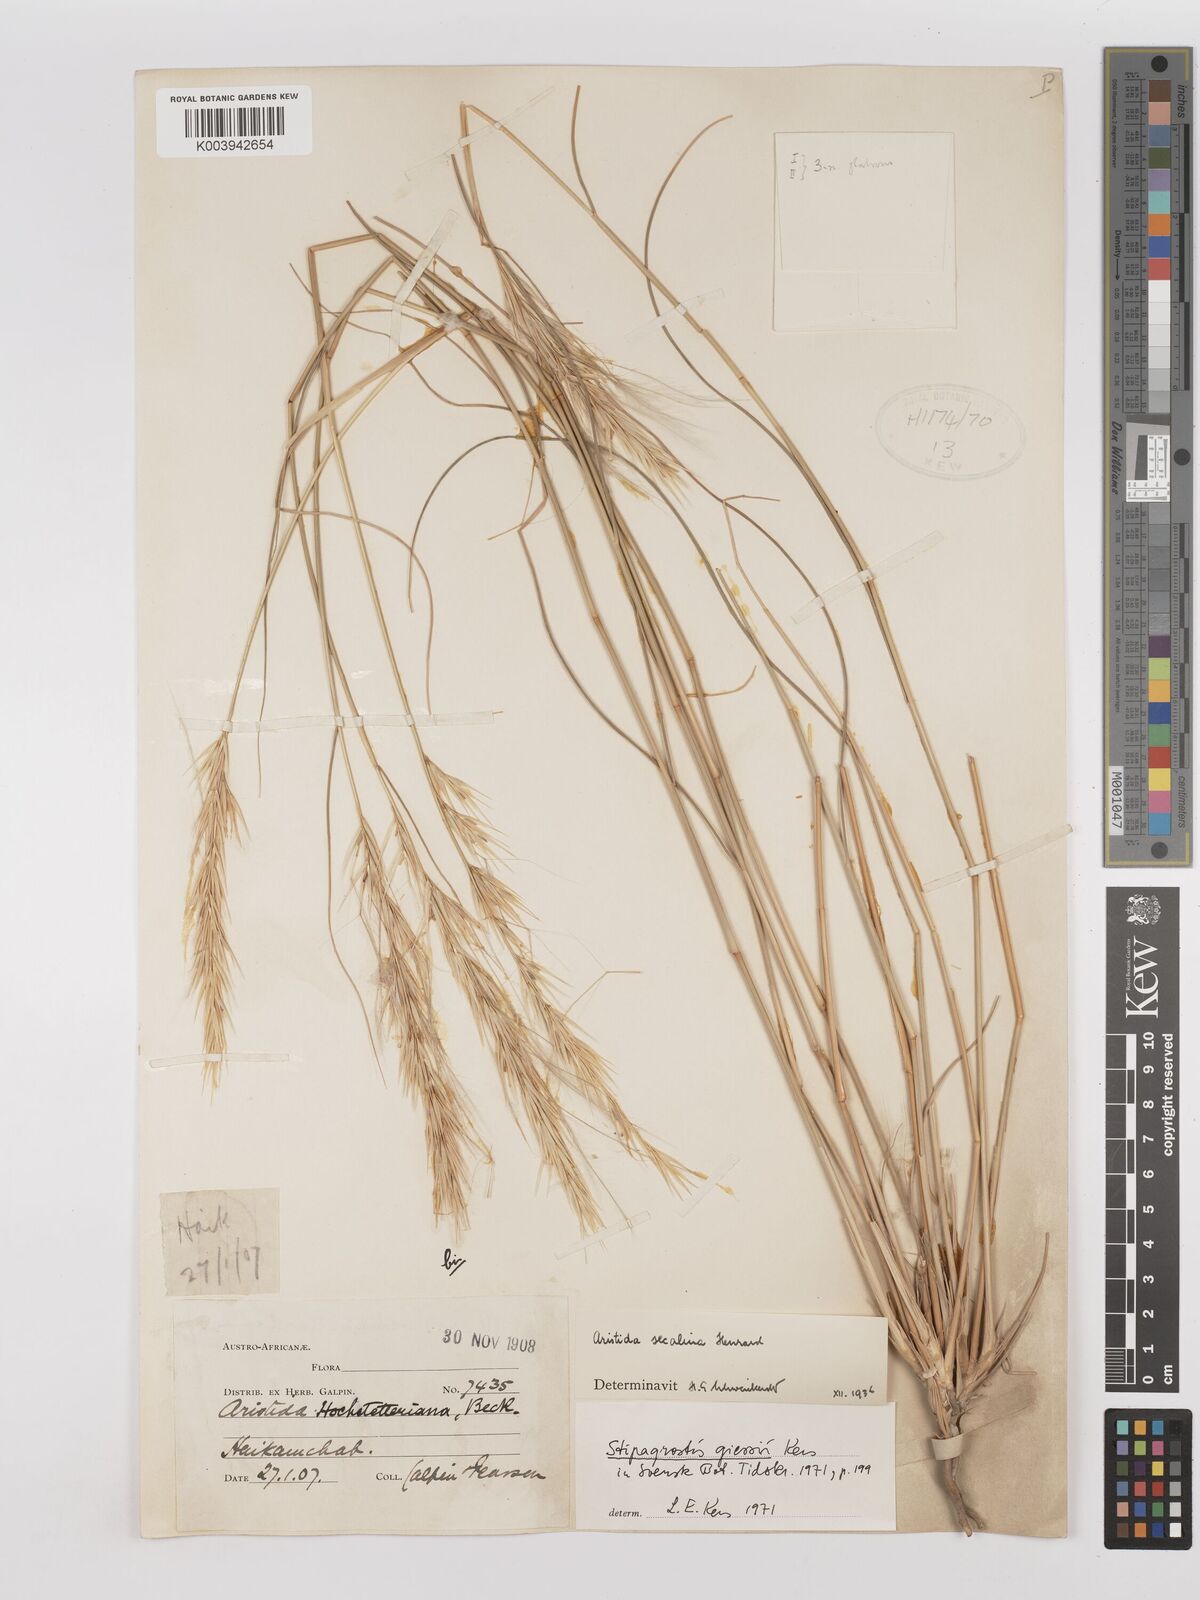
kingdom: Plantae
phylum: Tracheophyta
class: Liliopsida
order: Poales
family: Poaceae
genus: Stipagrostis
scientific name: Stipagrostis giessii
